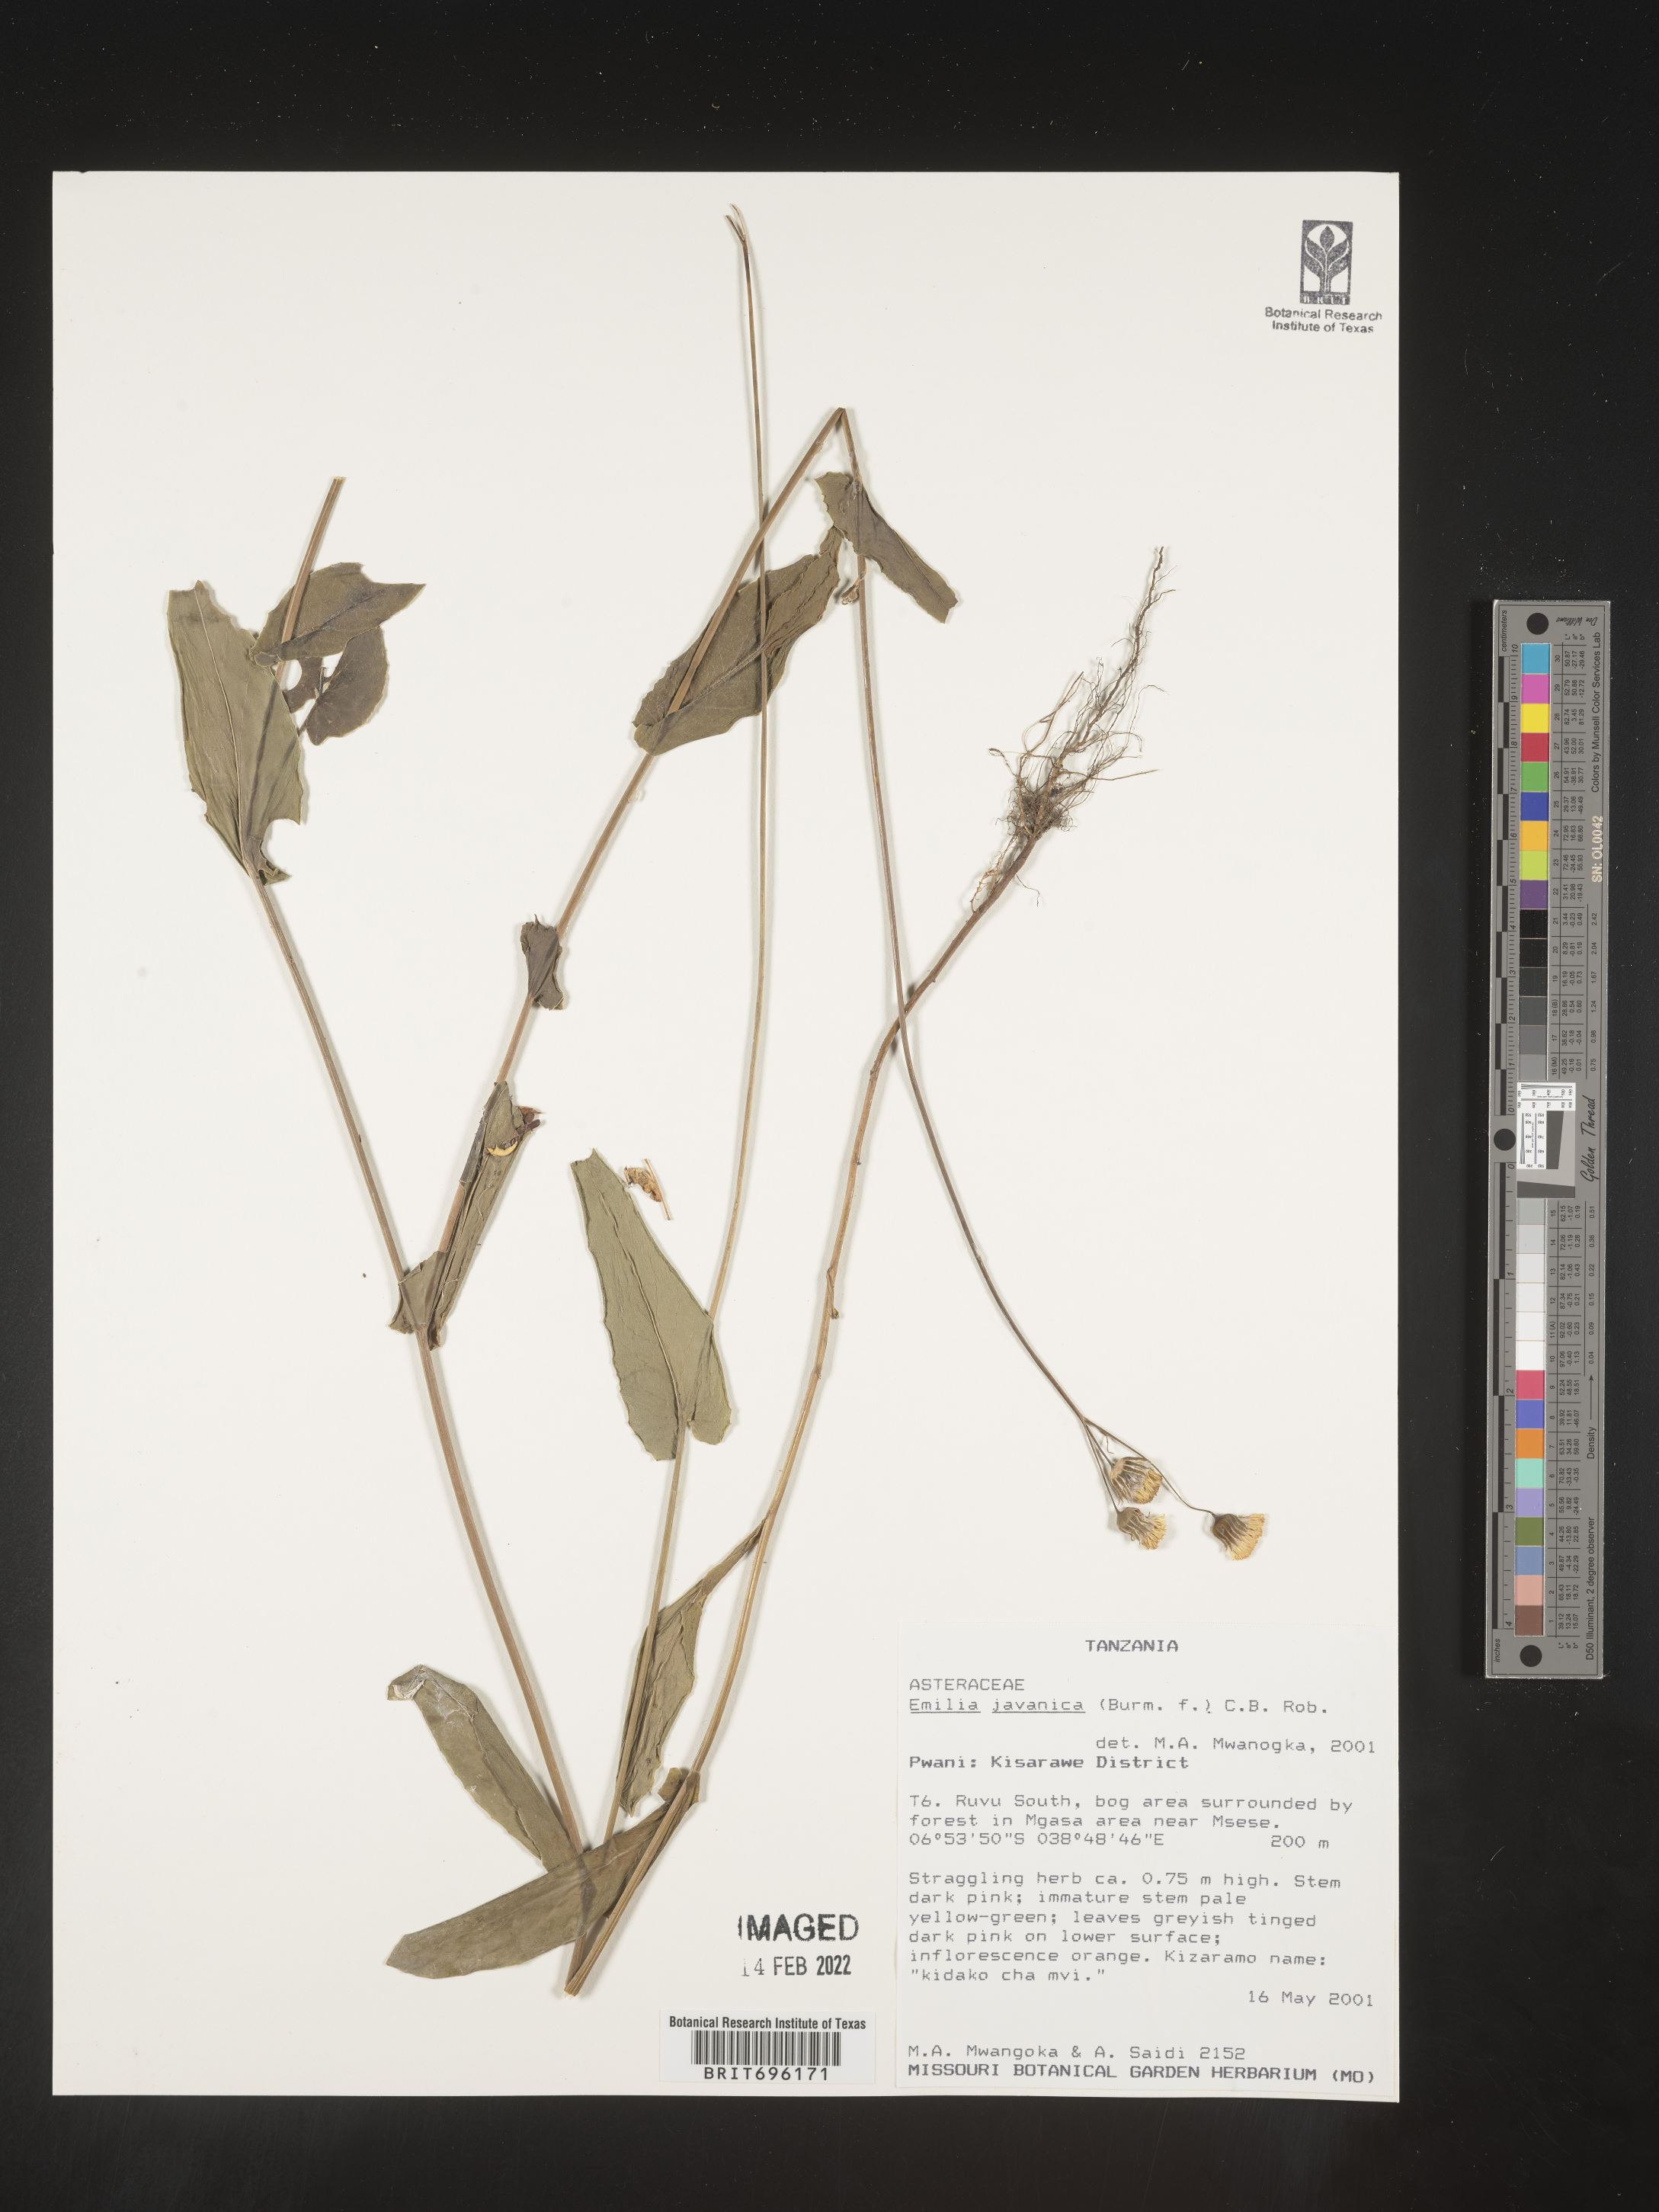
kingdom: Plantae
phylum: Tracheophyta
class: Magnoliopsida
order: Asterales
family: Asteraceae
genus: Emilia
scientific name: Emilia
